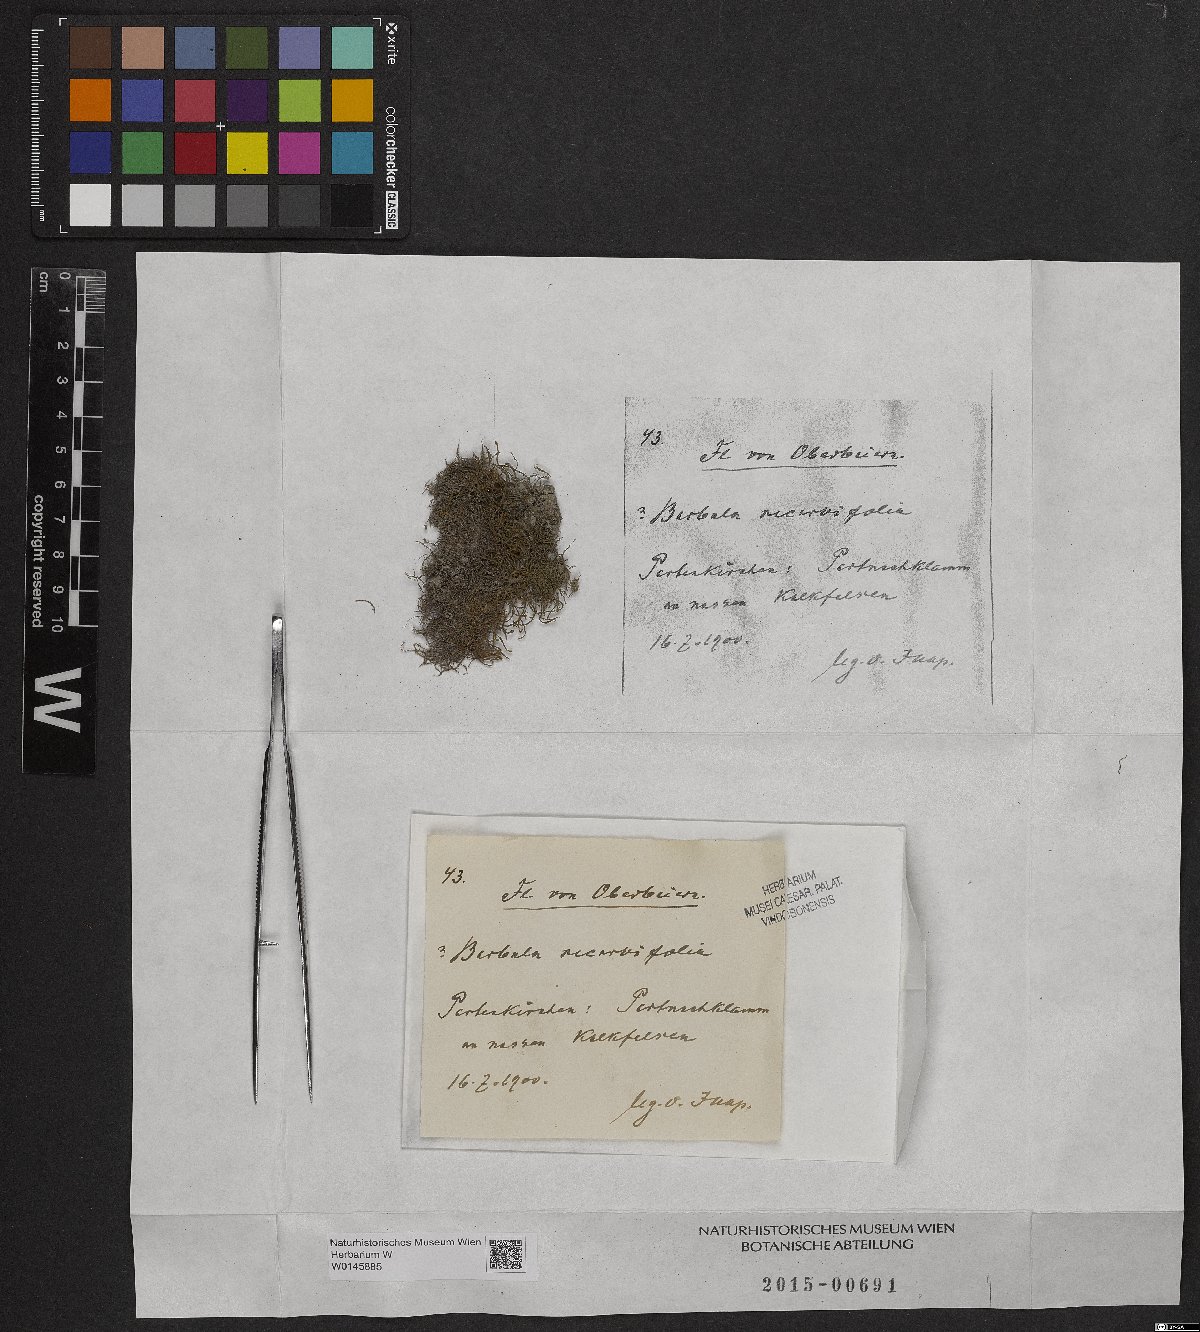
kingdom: Plantae
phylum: Bryophyta
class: Bryopsida
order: Pottiales
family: Pottiaceae
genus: Geheebia
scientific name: Geheebia ferruginea
